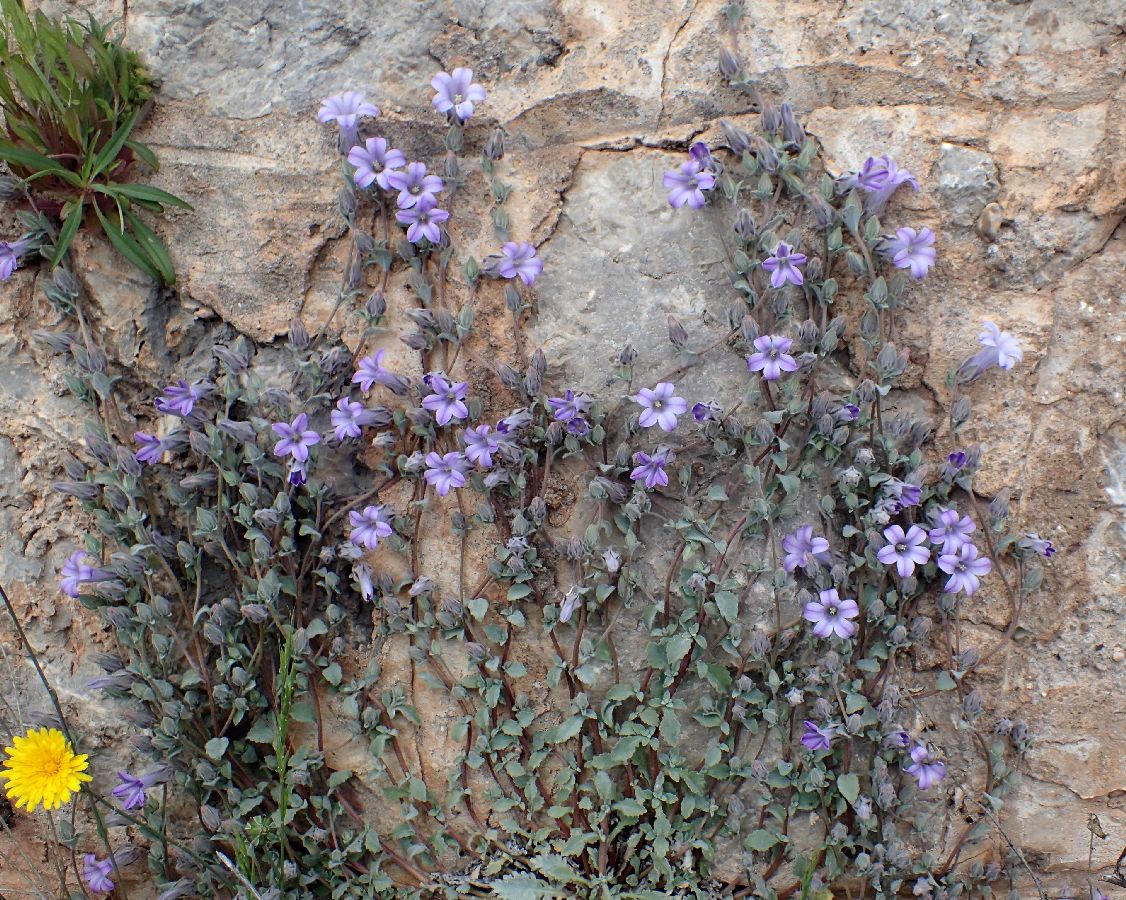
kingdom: Plantae
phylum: Tracheophyta
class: Magnoliopsida
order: Asterales
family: Campanulaceae
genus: Campanula
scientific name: Campanula topaliana
